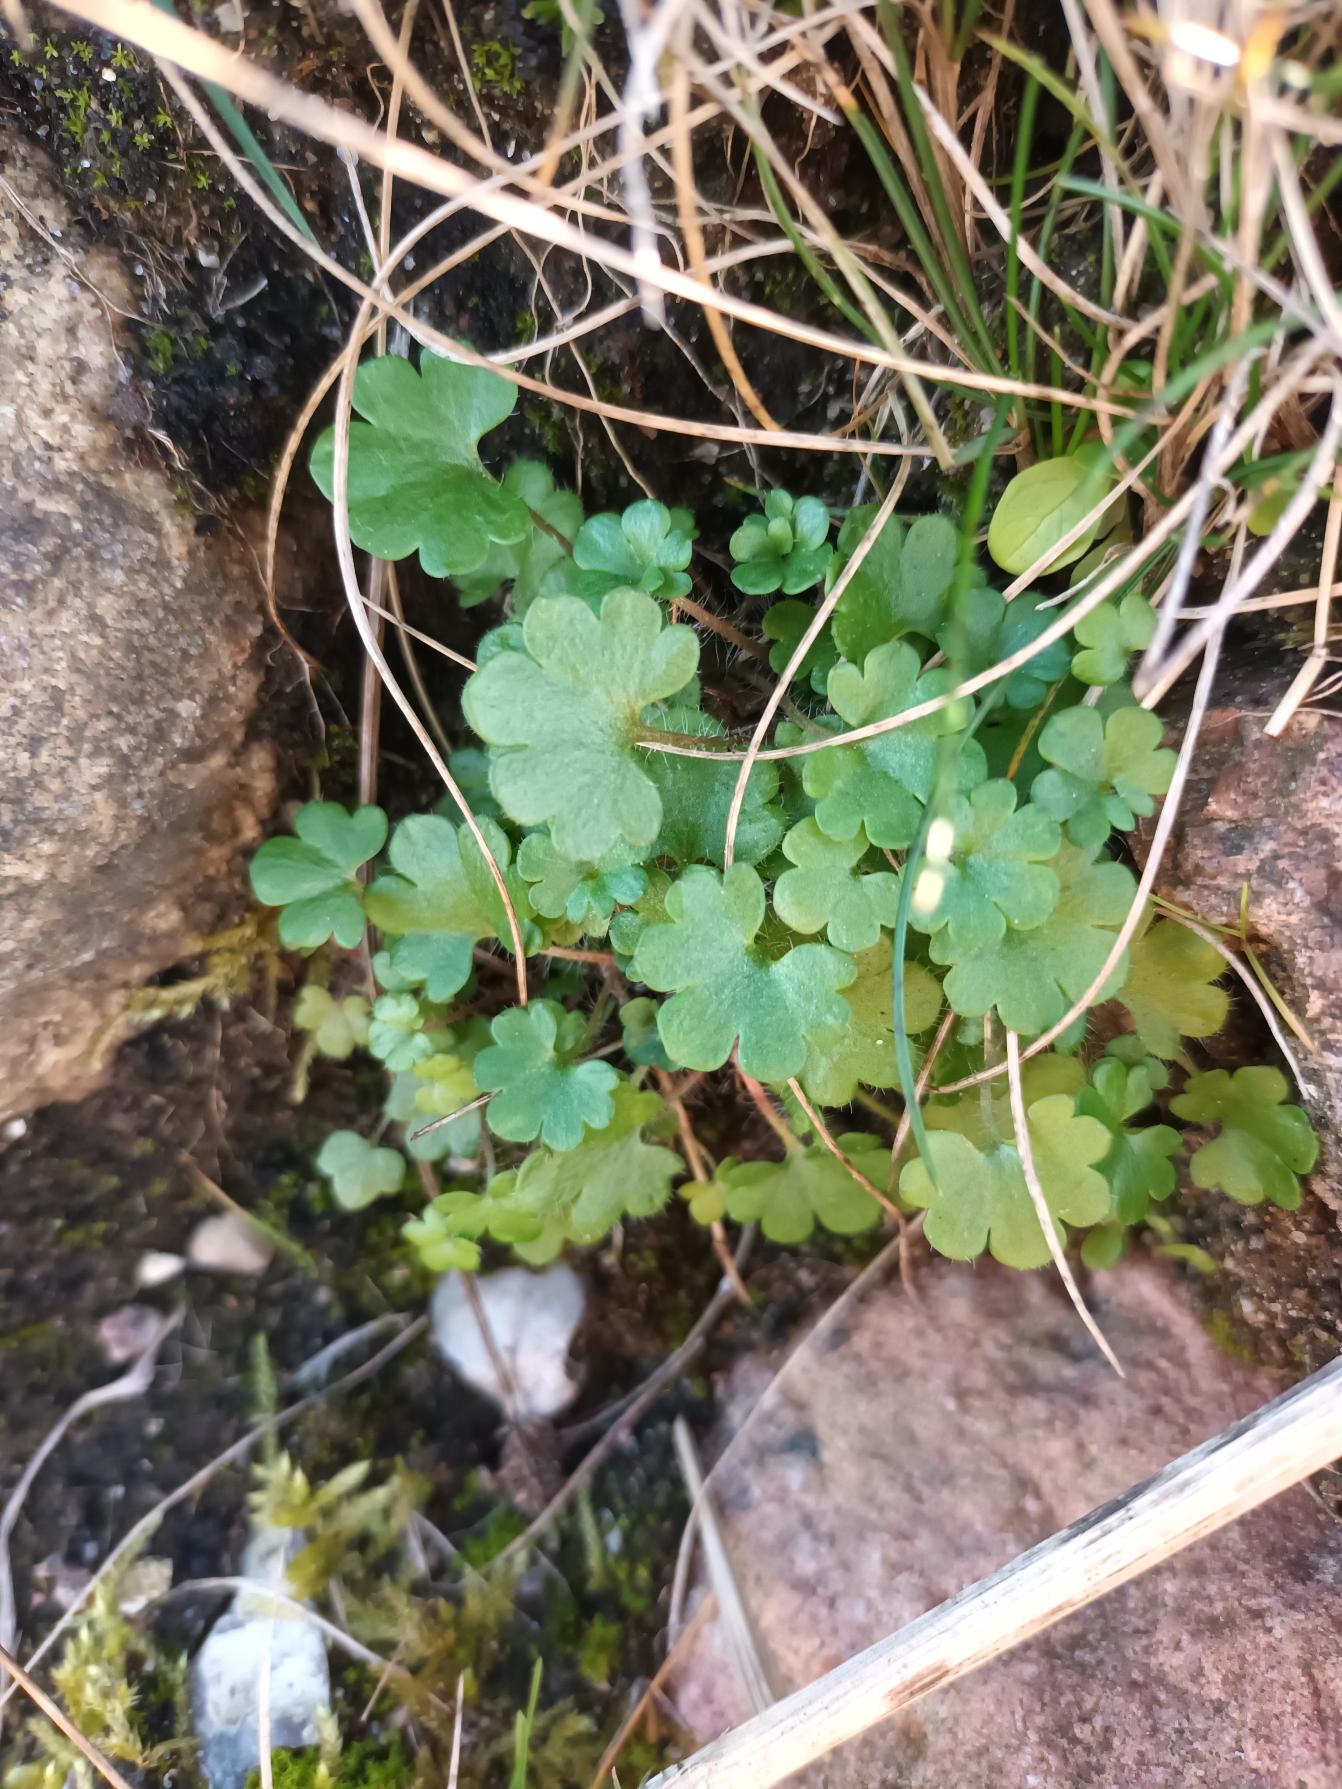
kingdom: Plantae
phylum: Tracheophyta
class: Magnoliopsida
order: Saxifragales
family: Saxifragaceae
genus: Saxifraga
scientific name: Saxifraga granulata
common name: Kornet stenbræk
